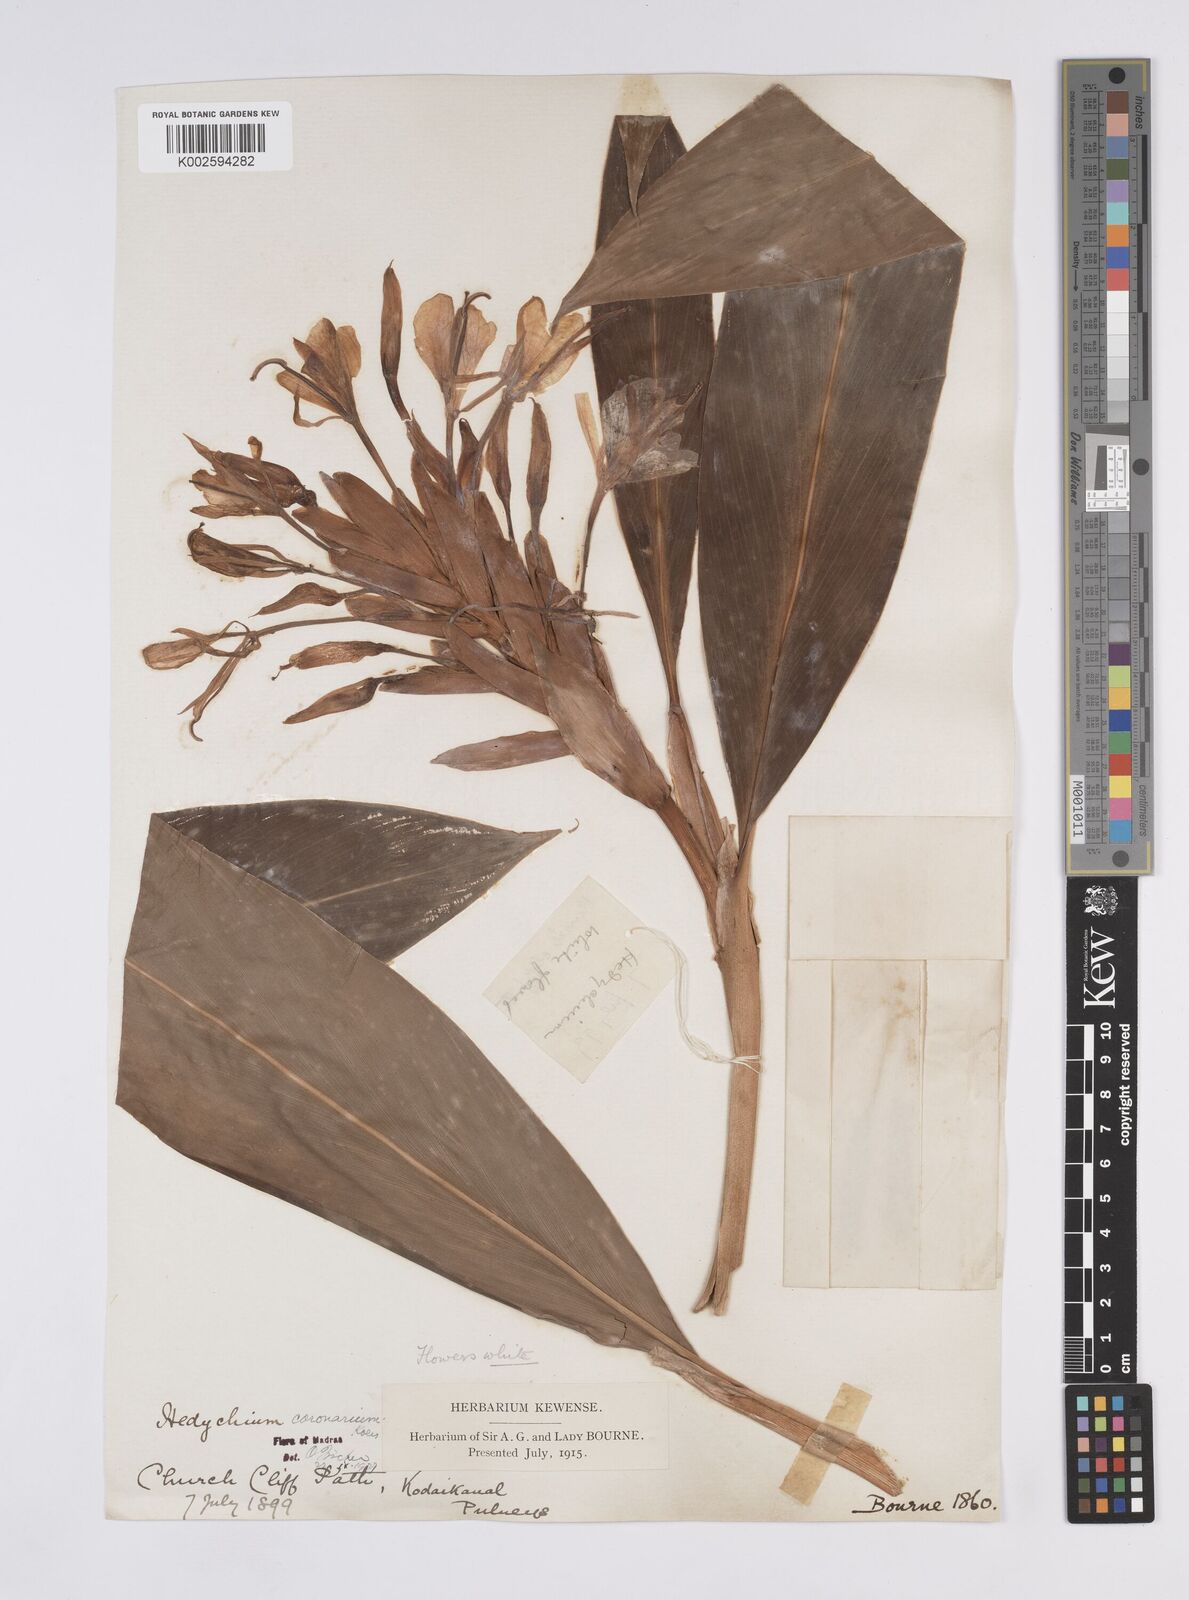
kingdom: Plantae
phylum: Tracheophyta
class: Liliopsida
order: Zingiberales
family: Zingiberaceae
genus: Hedychium
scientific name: Hedychium coronarium
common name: White garland-lily
